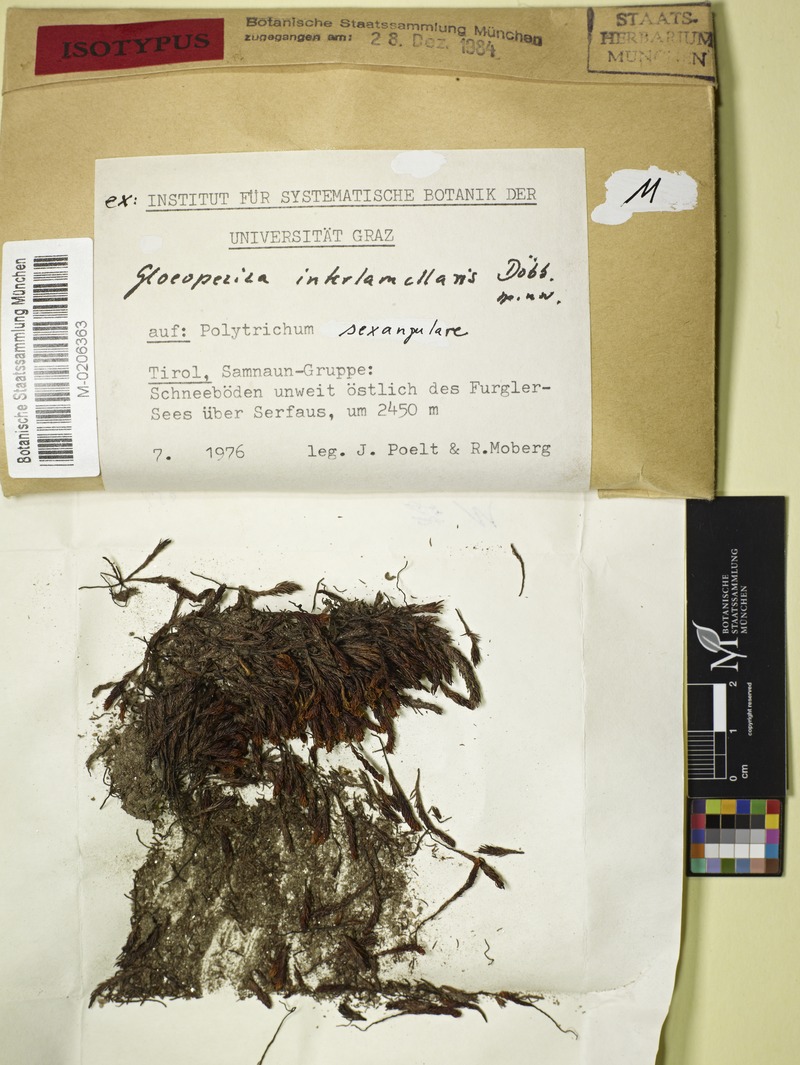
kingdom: Fungi
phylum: Ascomycota
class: Leotiomycetes
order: Helotiales
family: Helotiaceae
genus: Gloeopeziza
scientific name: Gloeopeziza interlamellaris
